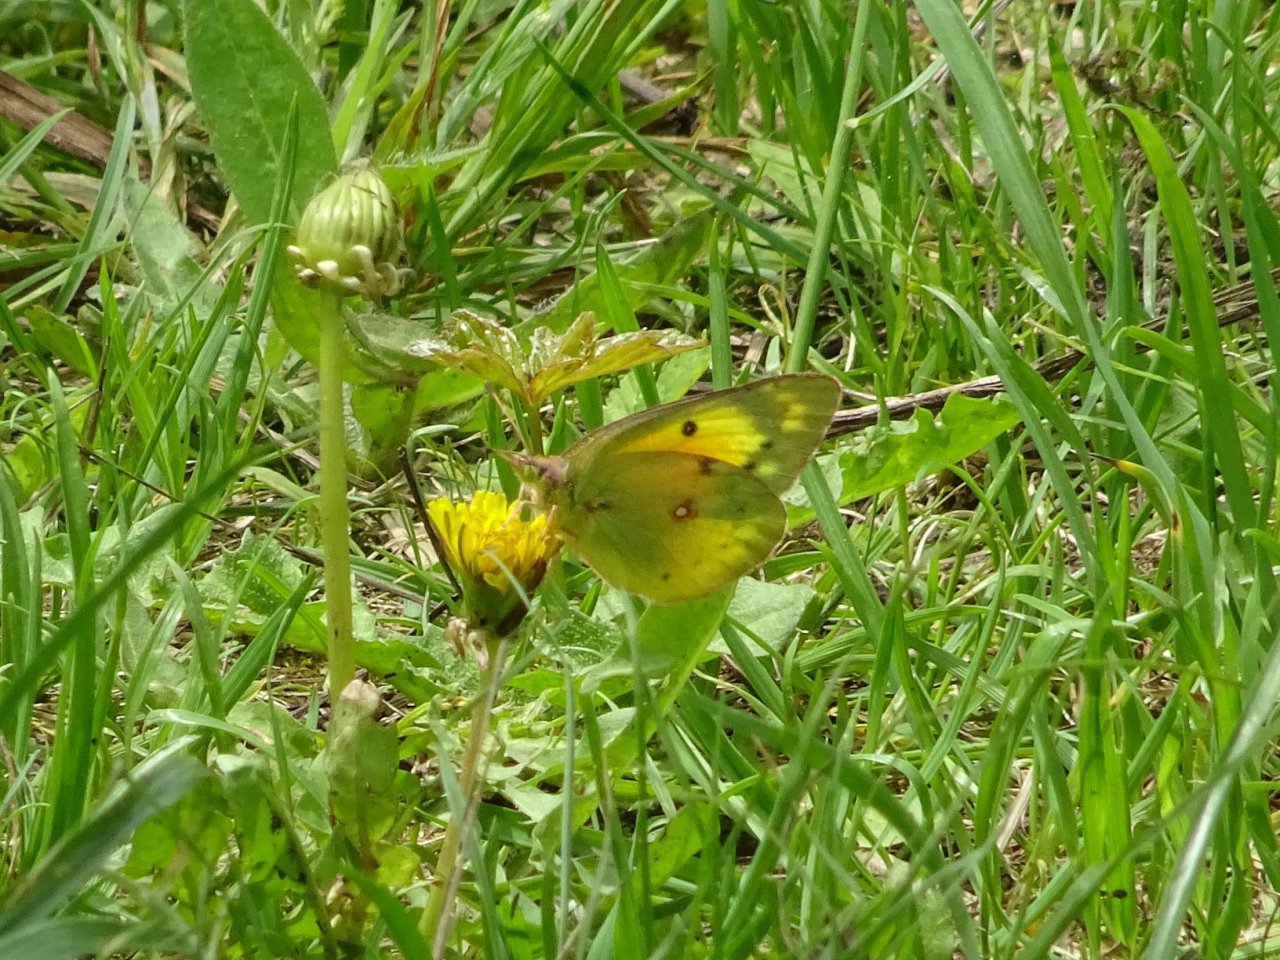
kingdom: Animalia
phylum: Arthropoda
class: Insecta
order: Lepidoptera
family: Pieridae
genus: Colias
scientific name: Colias eurytheme
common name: Orange Sulphur
